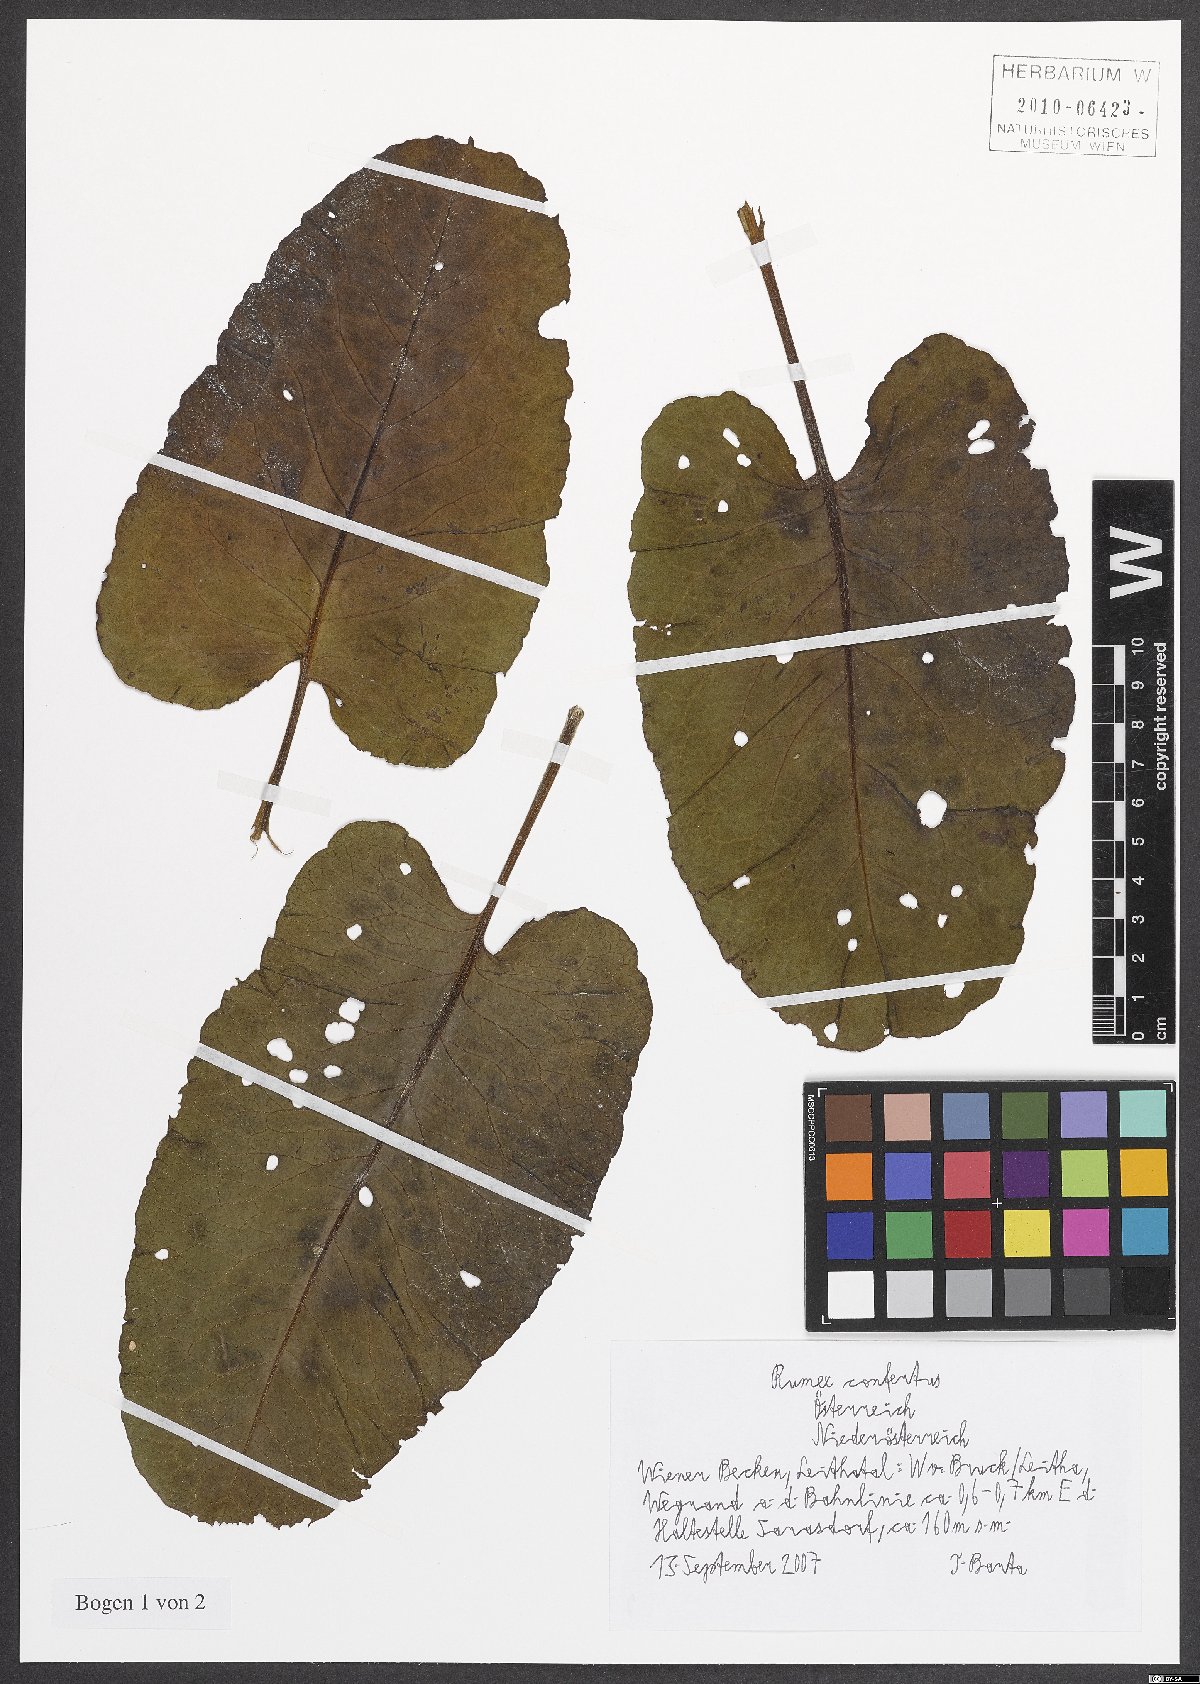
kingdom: Plantae
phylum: Tracheophyta
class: Magnoliopsida
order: Caryophyllales
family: Polygonaceae
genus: Rumex
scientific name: Rumex confertus
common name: Russian dock
